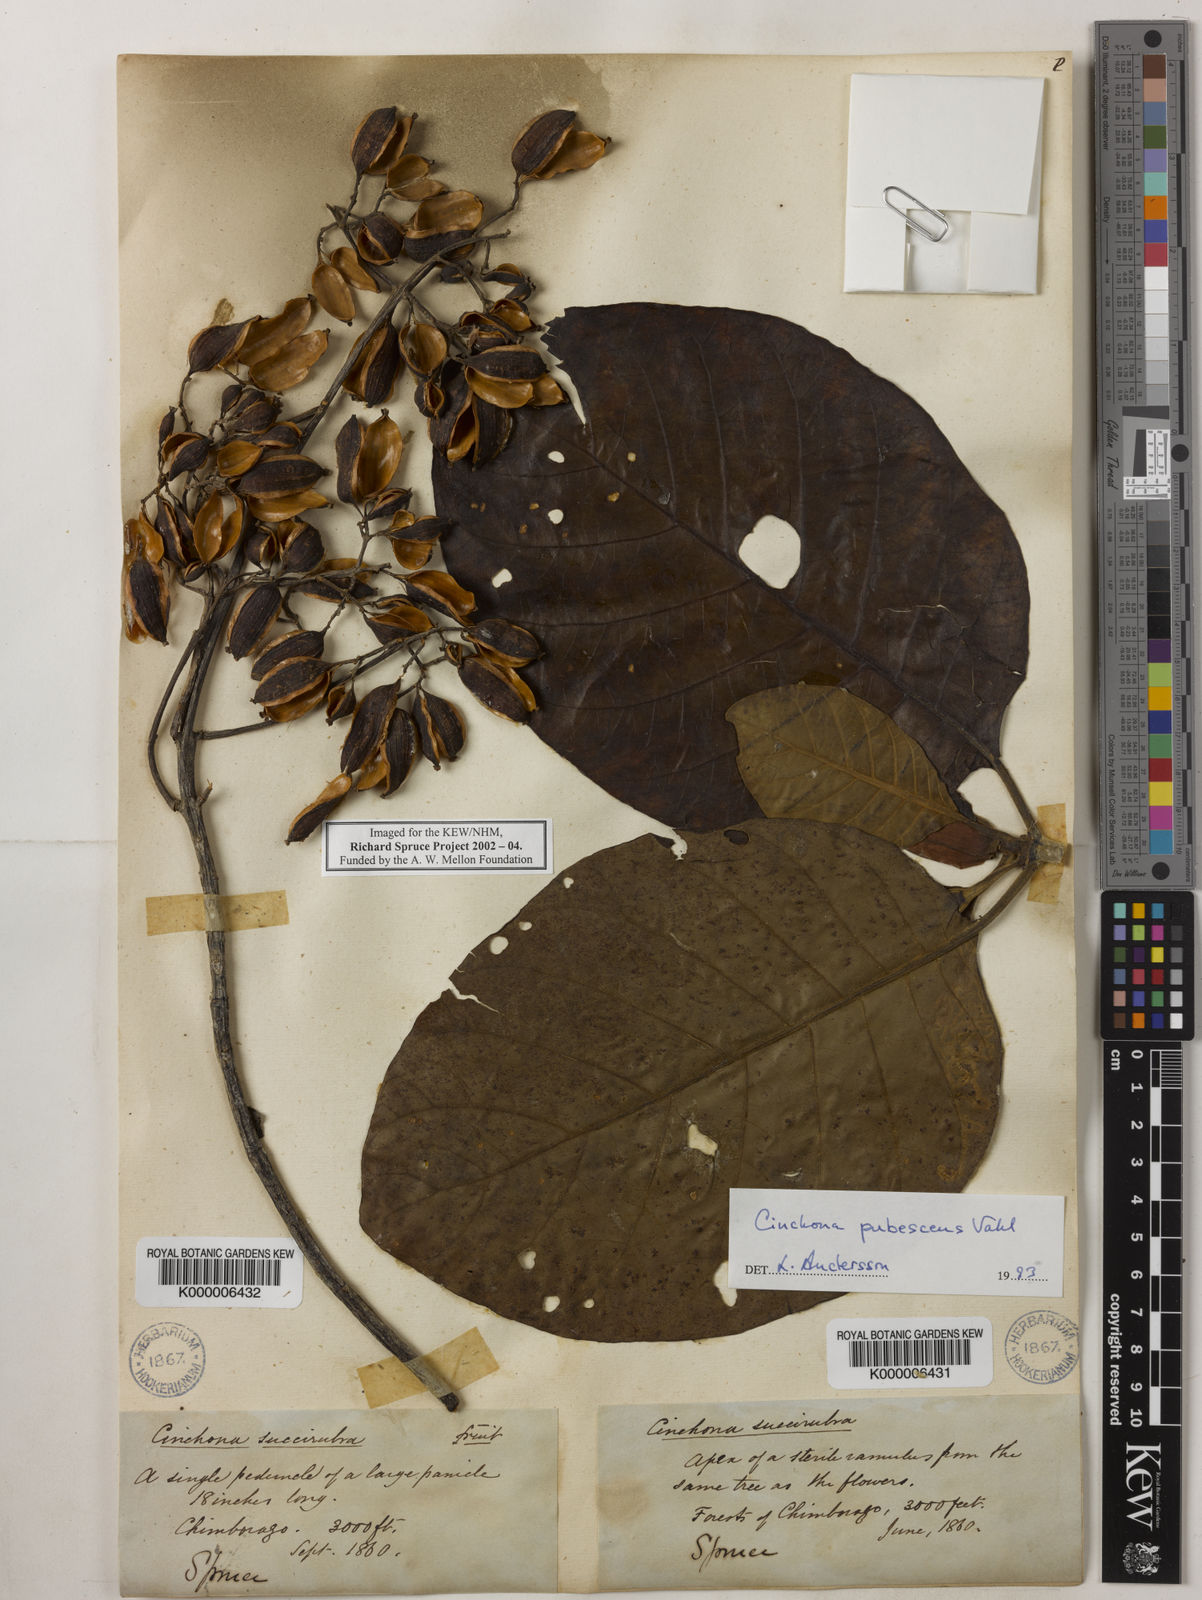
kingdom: Plantae
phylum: Tracheophyta
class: Magnoliopsida
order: Gentianales
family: Rubiaceae
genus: Cinchona
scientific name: Cinchona pubescens
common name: Quinine
